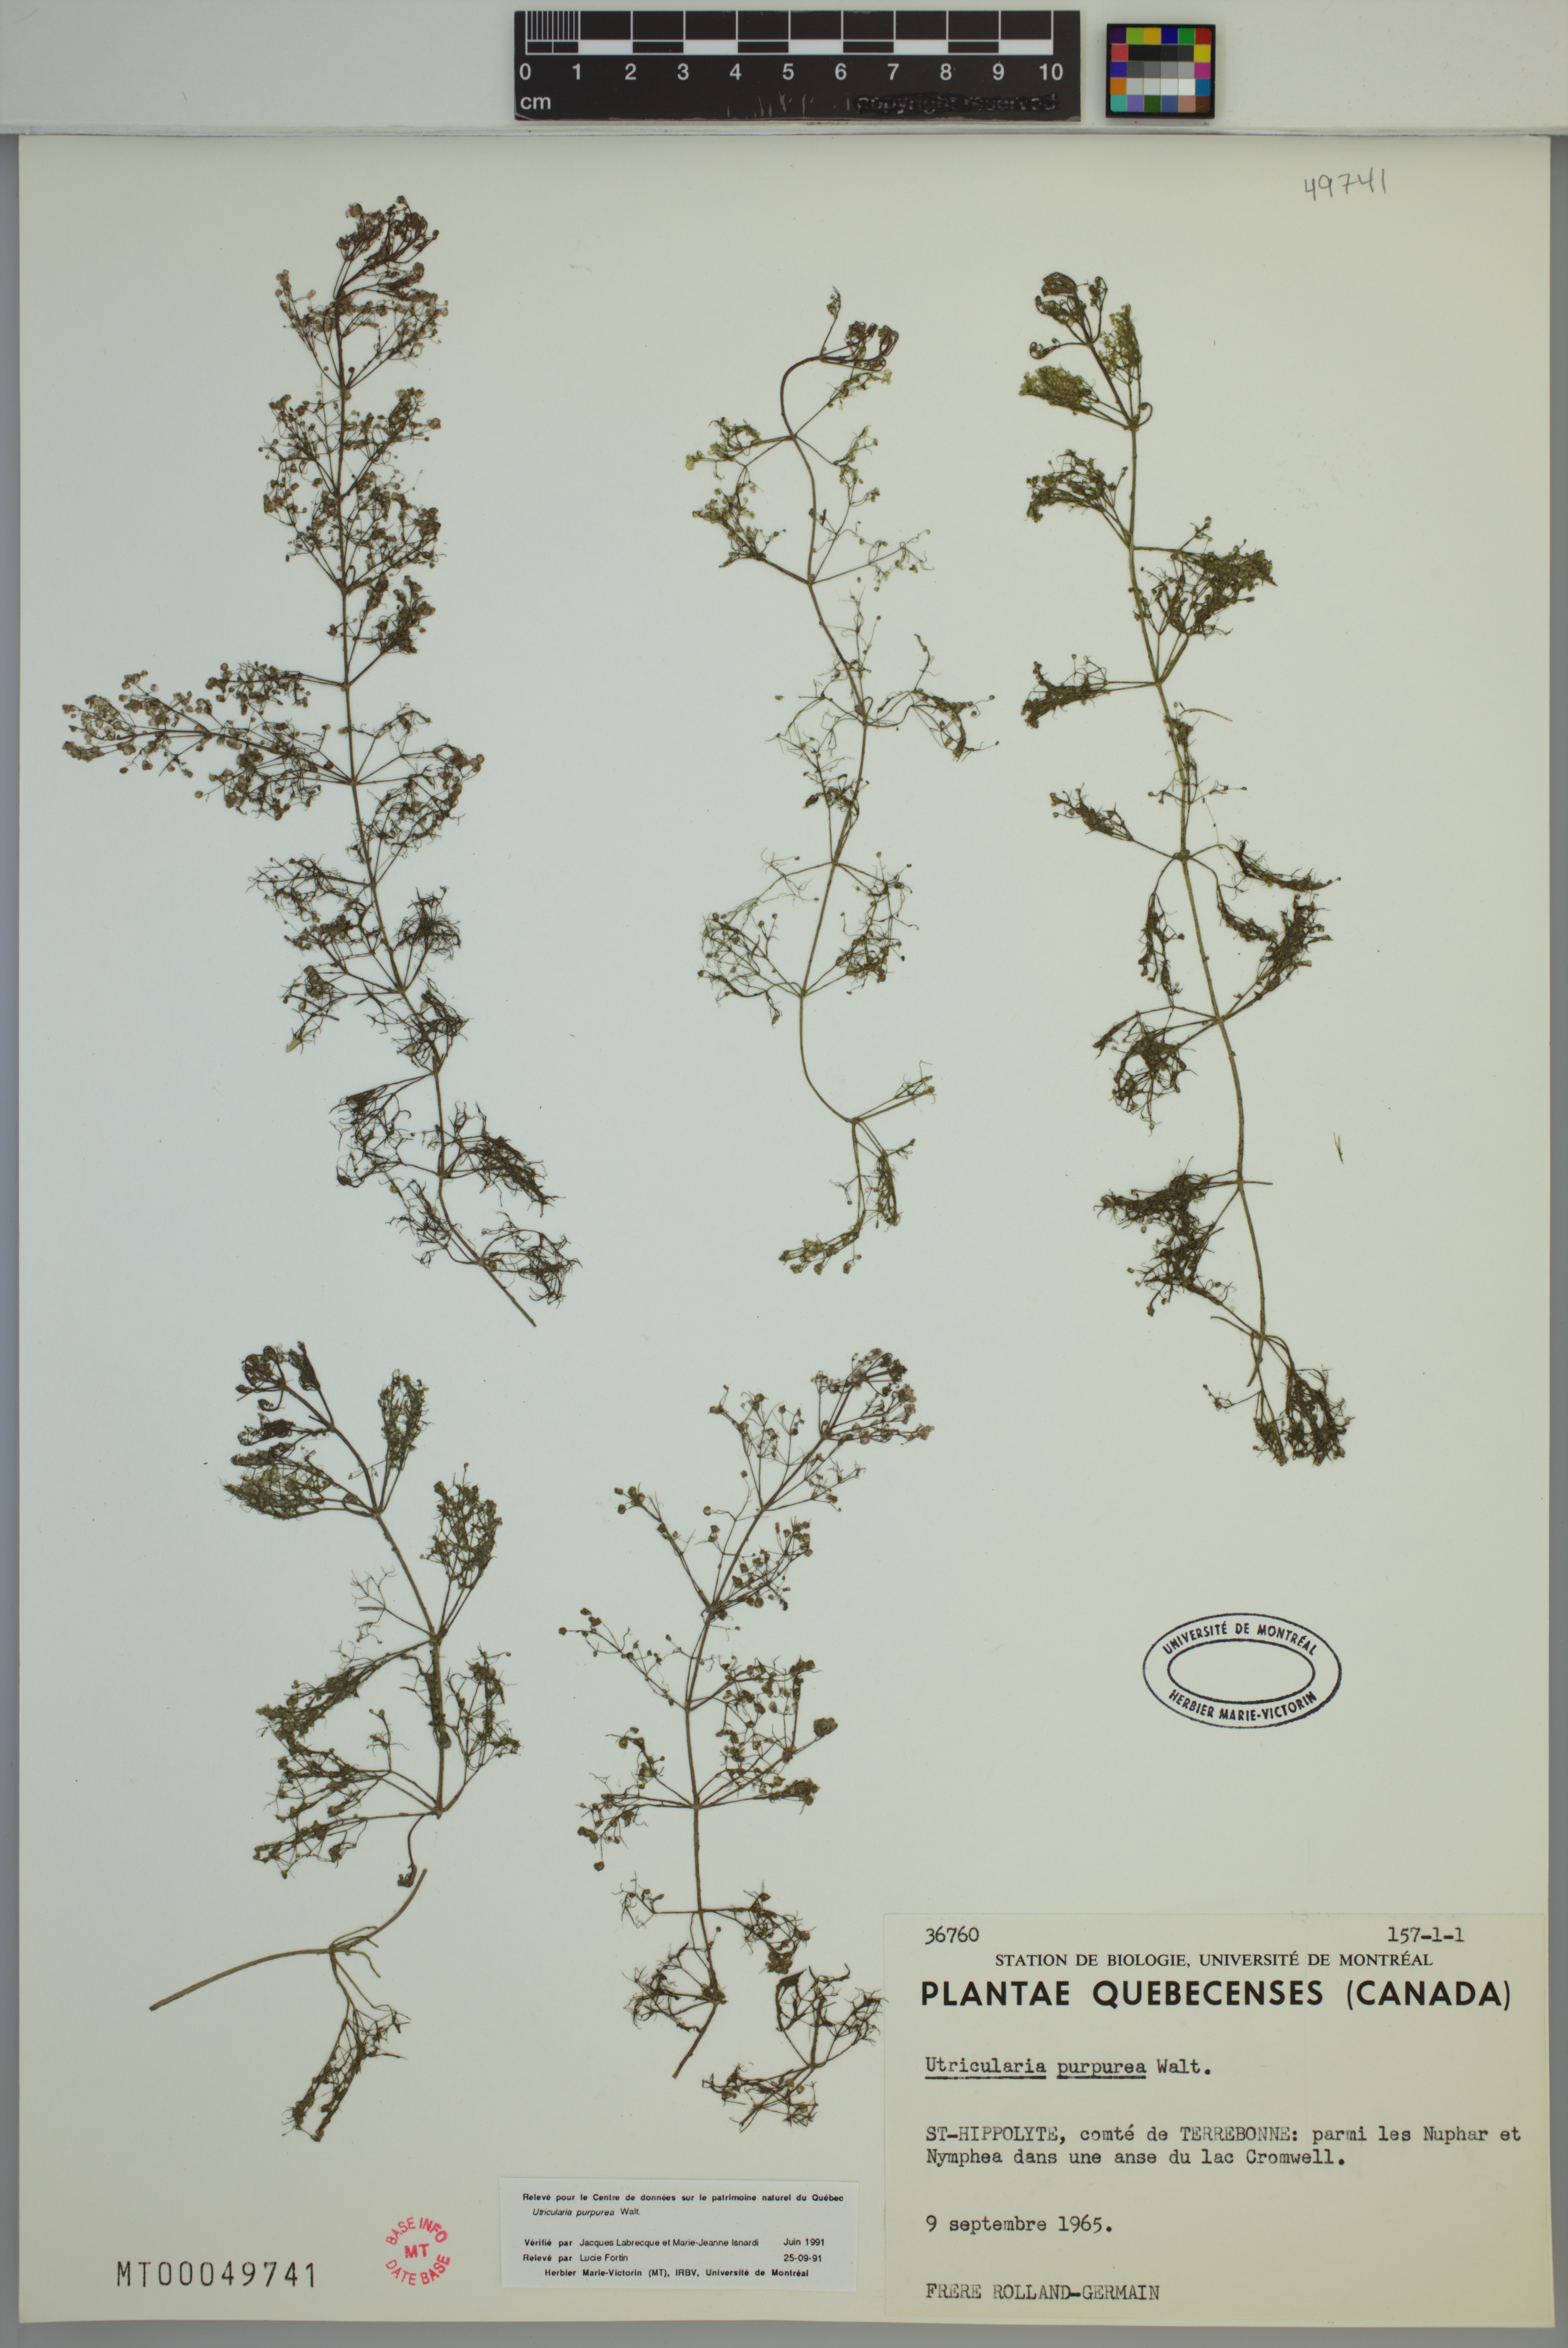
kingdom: Plantae
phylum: Tracheophyta
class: Magnoliopsida
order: Lamiales
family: Lentibulariaceae
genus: Utricularia
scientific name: Utricularia purpurea
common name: Eastern purple bladderwort
